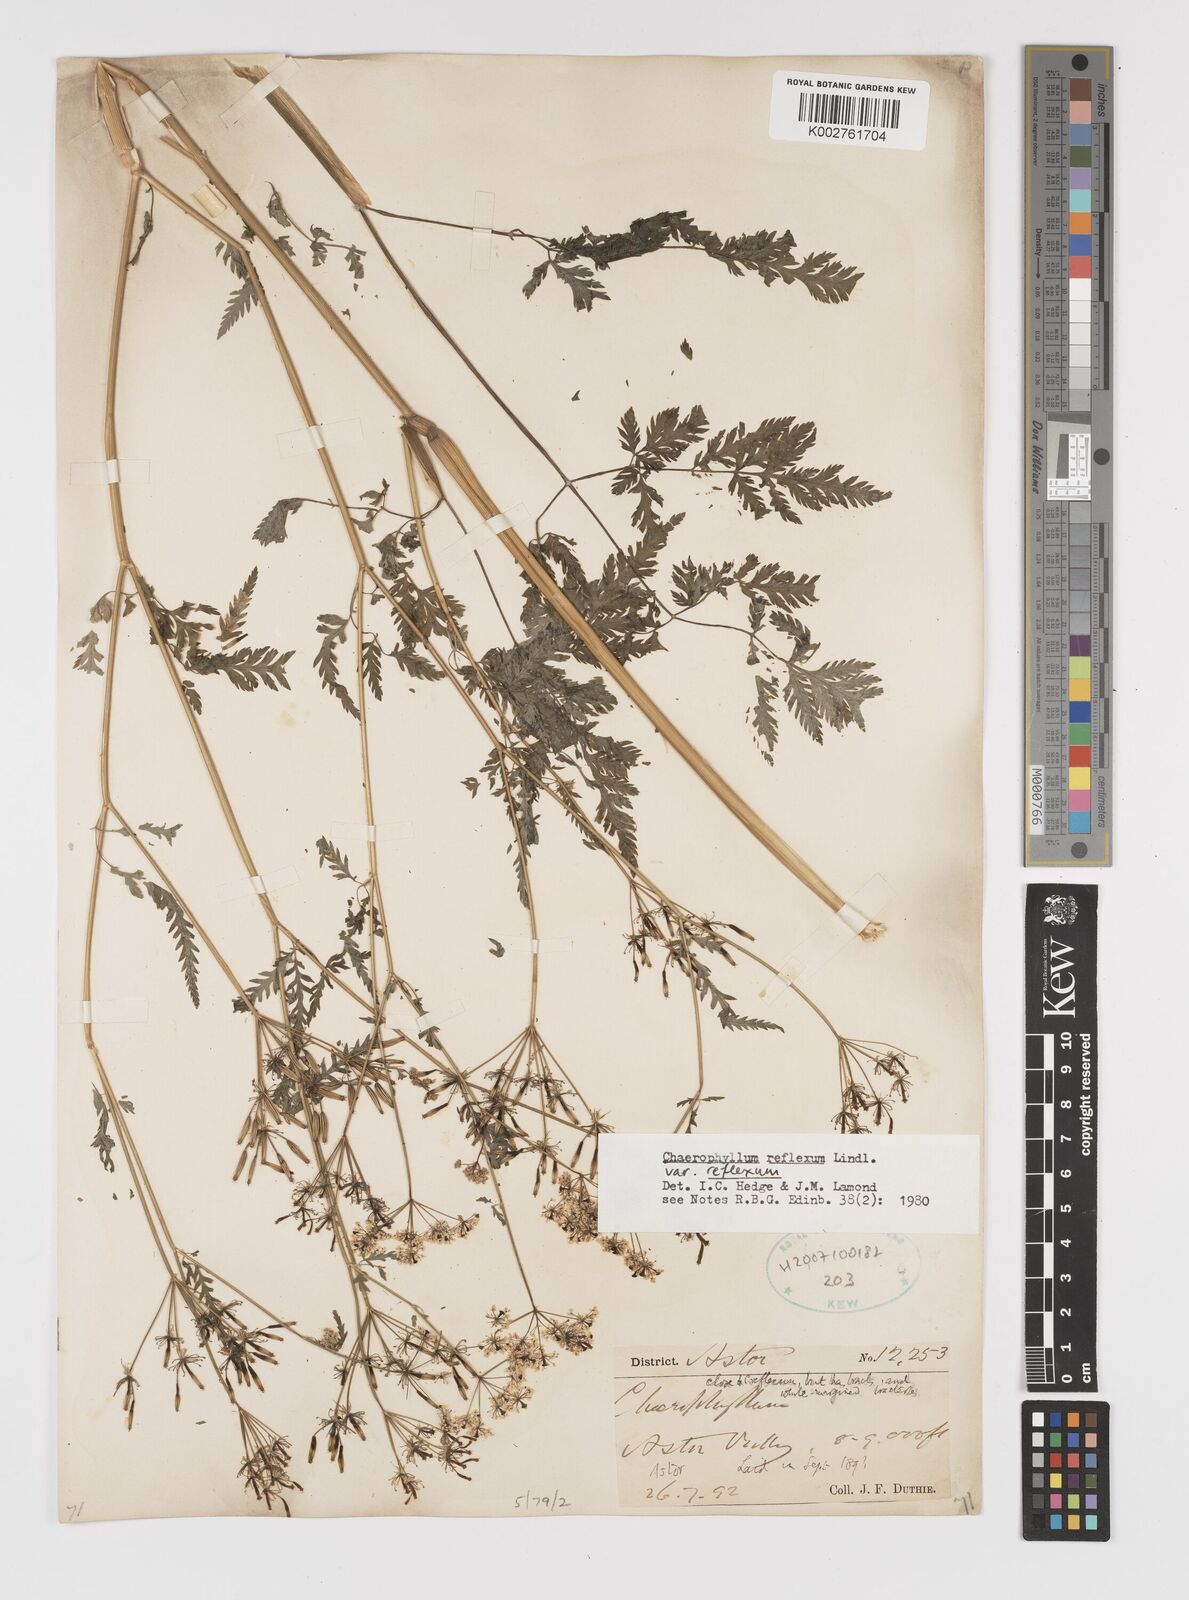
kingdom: Plantae
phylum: Tracheophyta
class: Magnoliopsida
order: Apiales
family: Apiaceae
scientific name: Apiaceae
